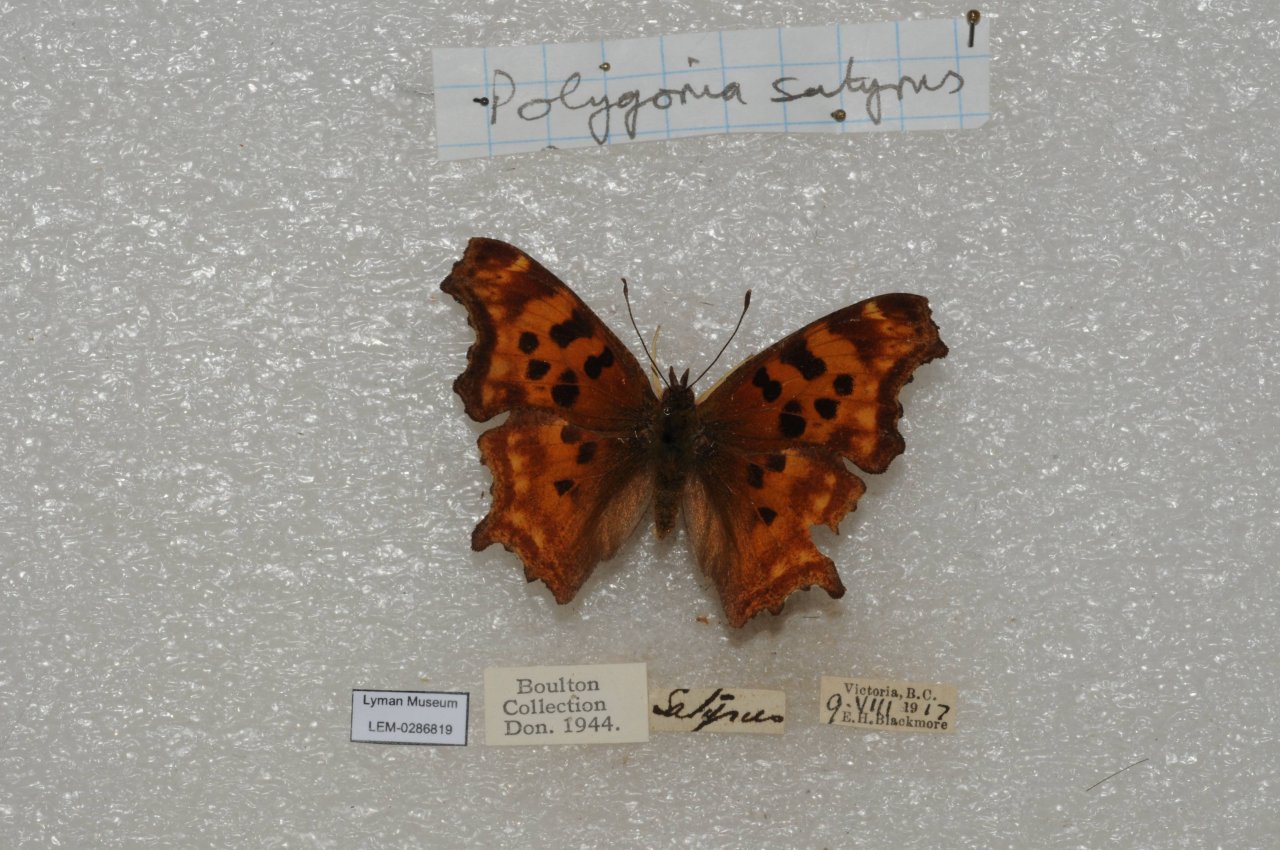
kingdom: Animalia
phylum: Arthropoda
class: Insecta
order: Lepidoptera
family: Nymphalidae
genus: Polygonia
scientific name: Polygonia satyrus
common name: Satyr Comma
